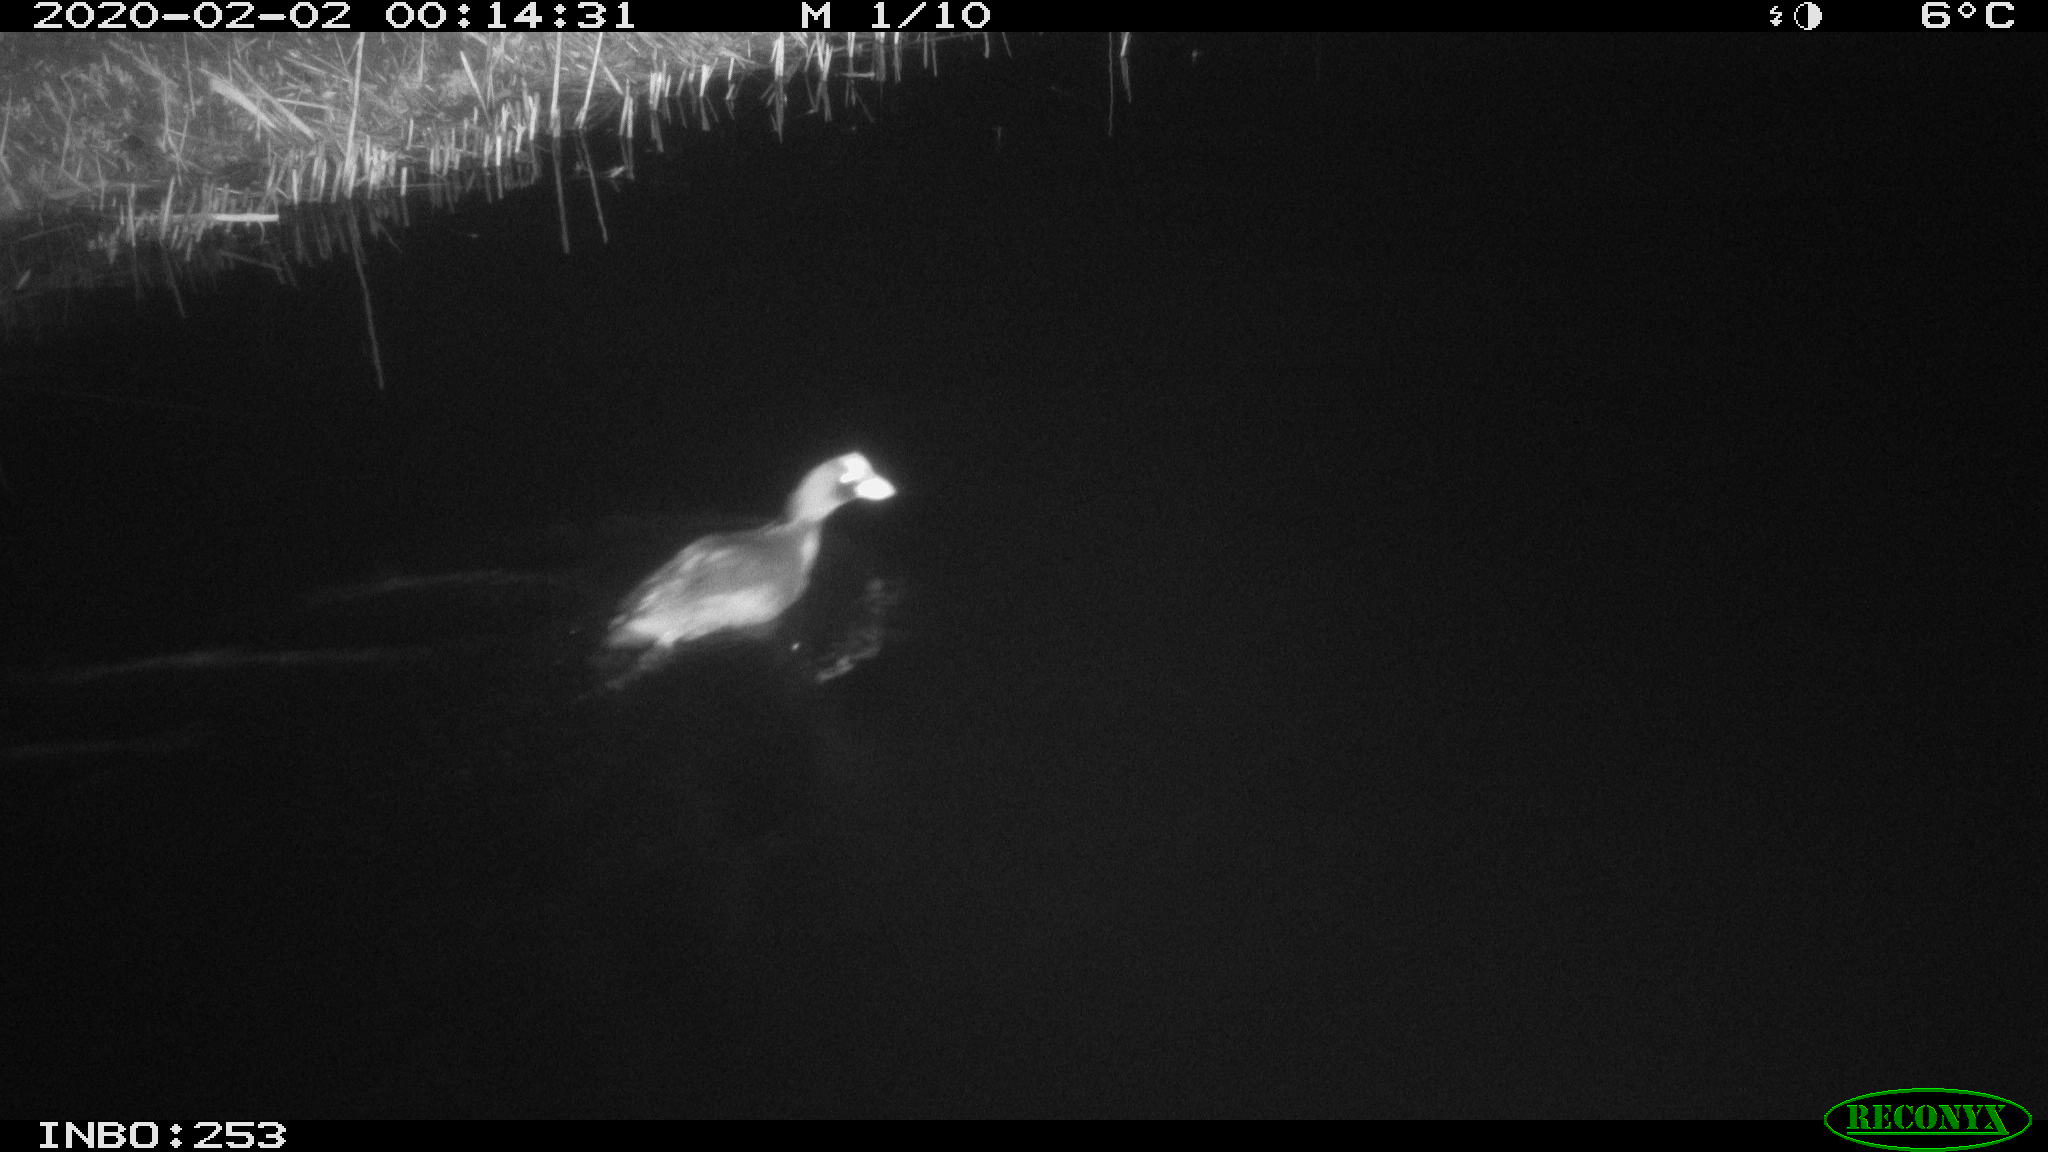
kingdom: Animalia
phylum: Chordata
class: Aves
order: Gruiformes
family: Rallidae
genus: Fulica
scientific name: Fulica atra
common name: Eurasian coot
